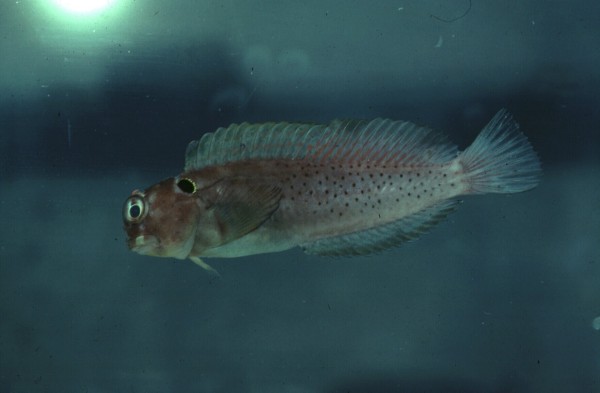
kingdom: Animalia
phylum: Chordata
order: Perciformes
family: Blenniidae
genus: Cirripectes
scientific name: Cirripectes auritus
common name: Eared blenny
